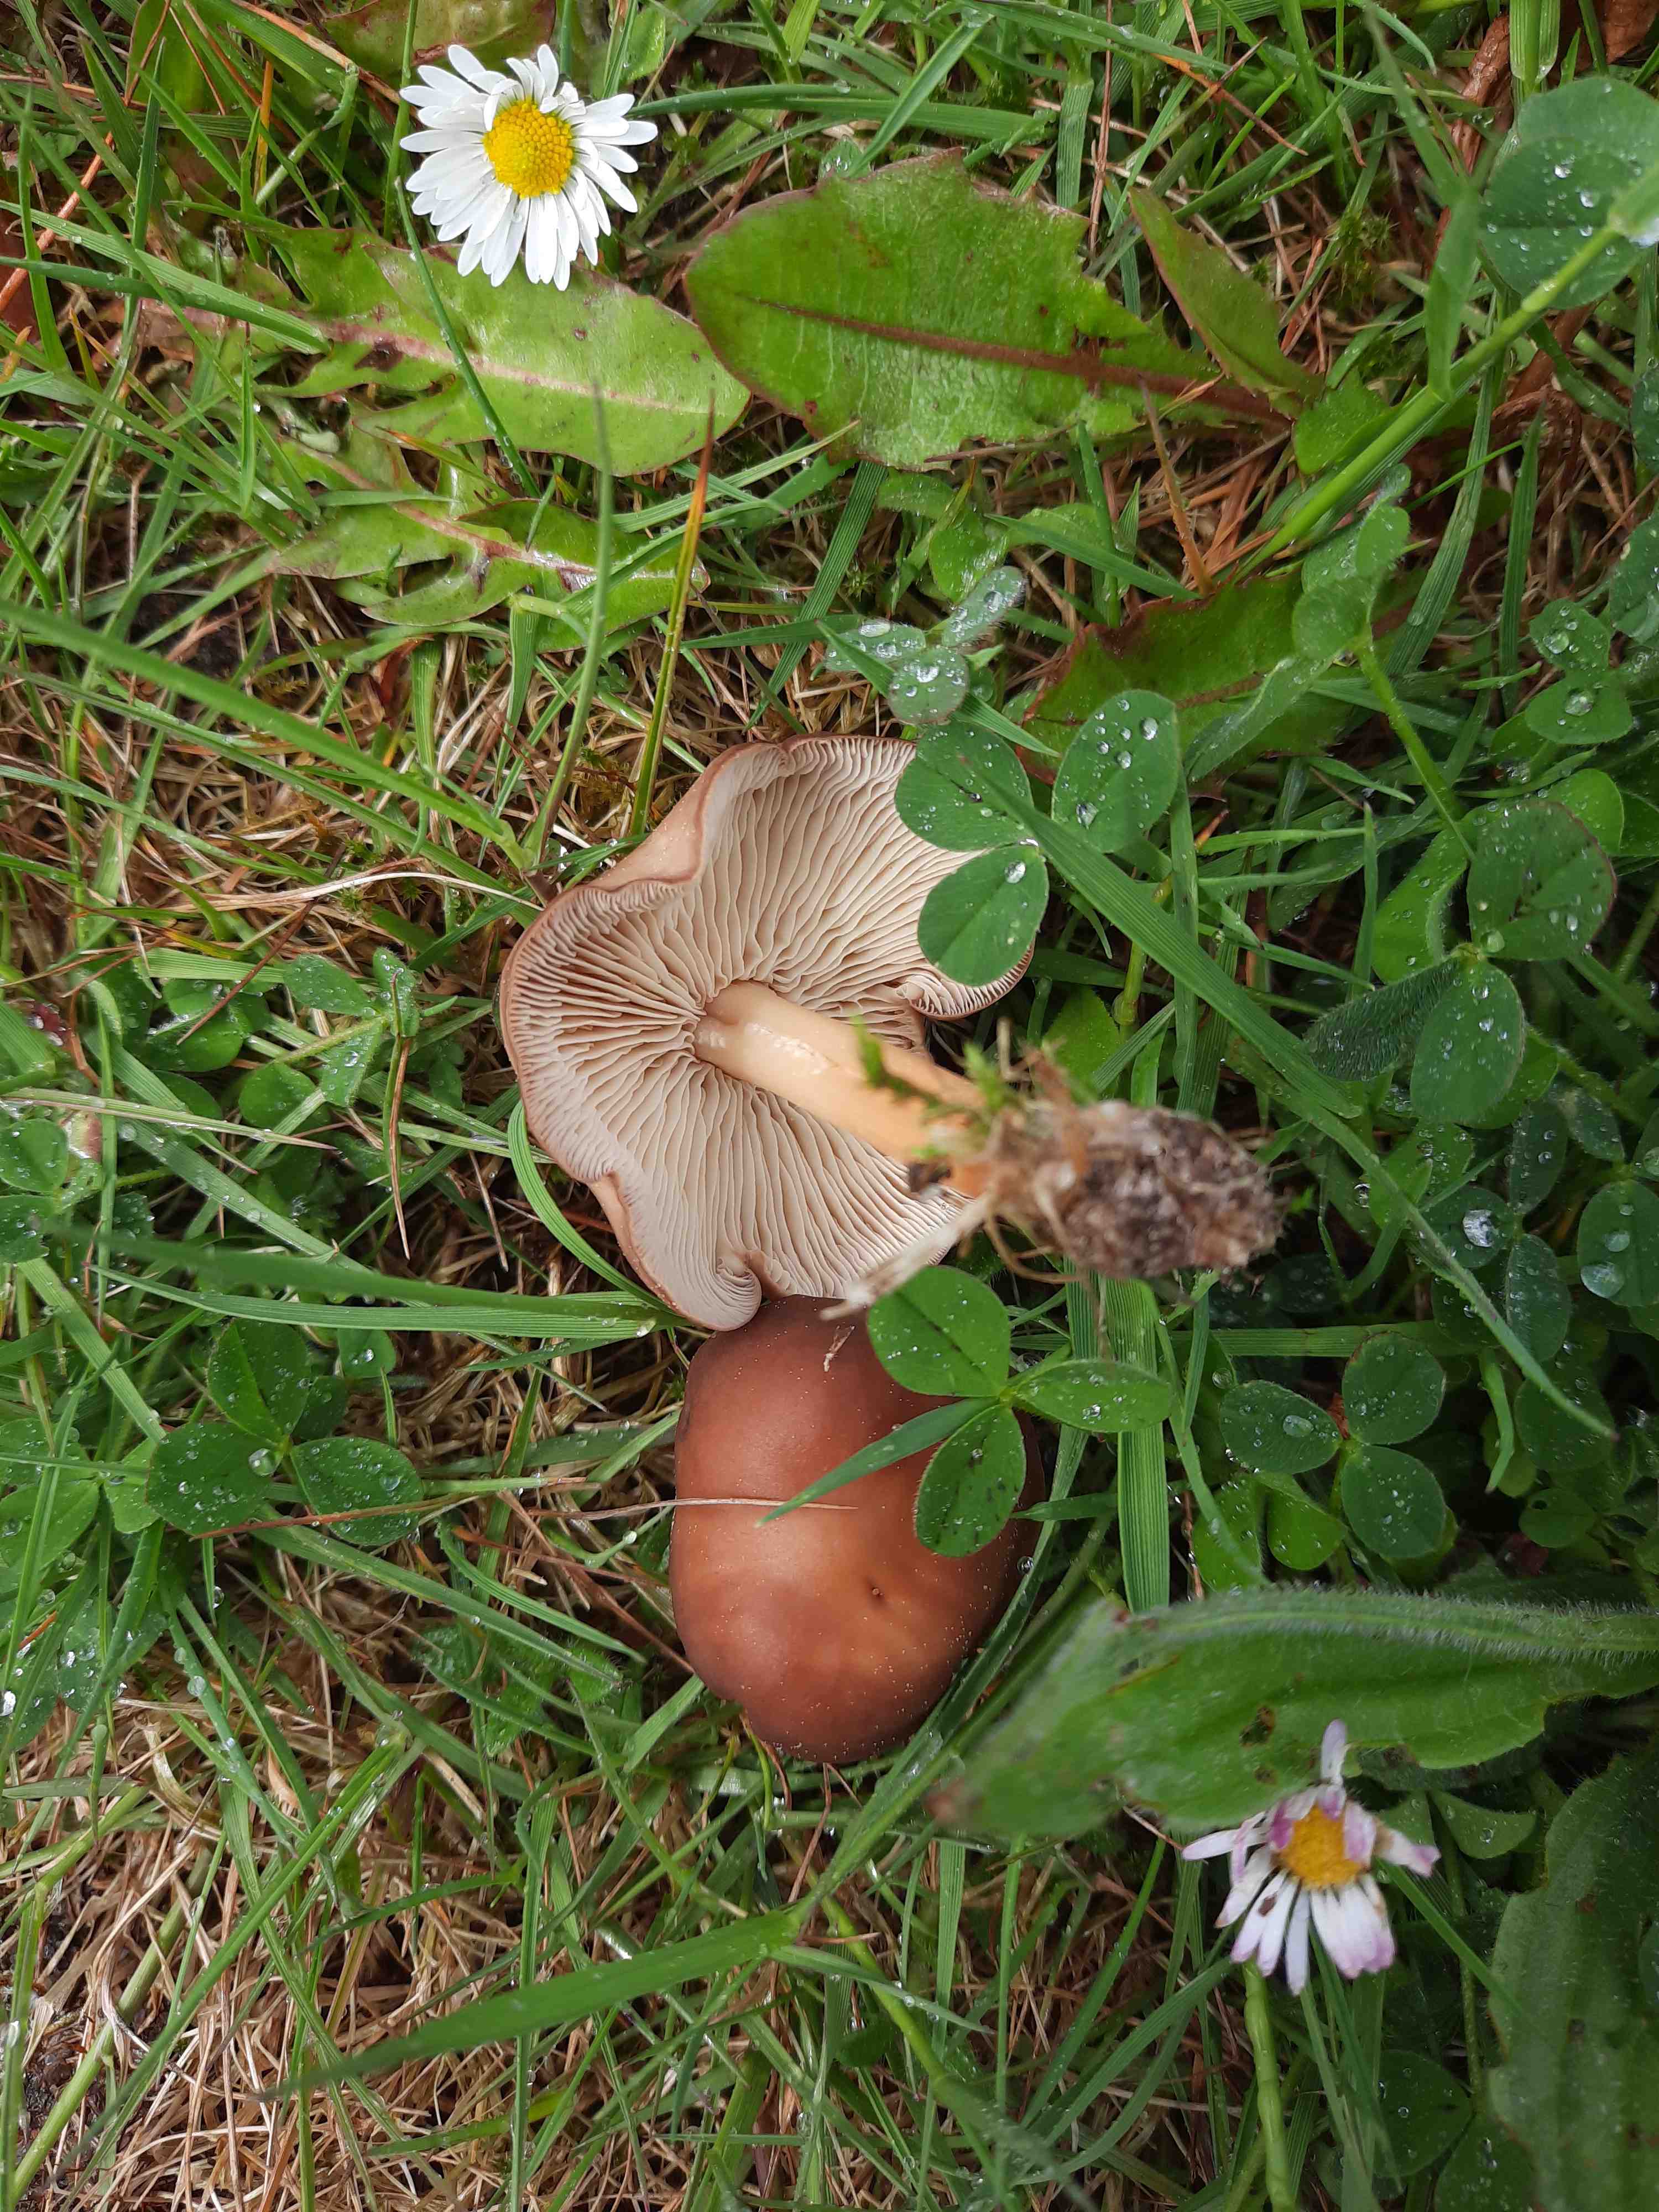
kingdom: Fungi
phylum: Basidiomycota
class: Agaricomycetes
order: Agaricales
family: Omphalotaceae
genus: Gymnopus
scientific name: Gymnopus ocior
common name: mørk fladhat
